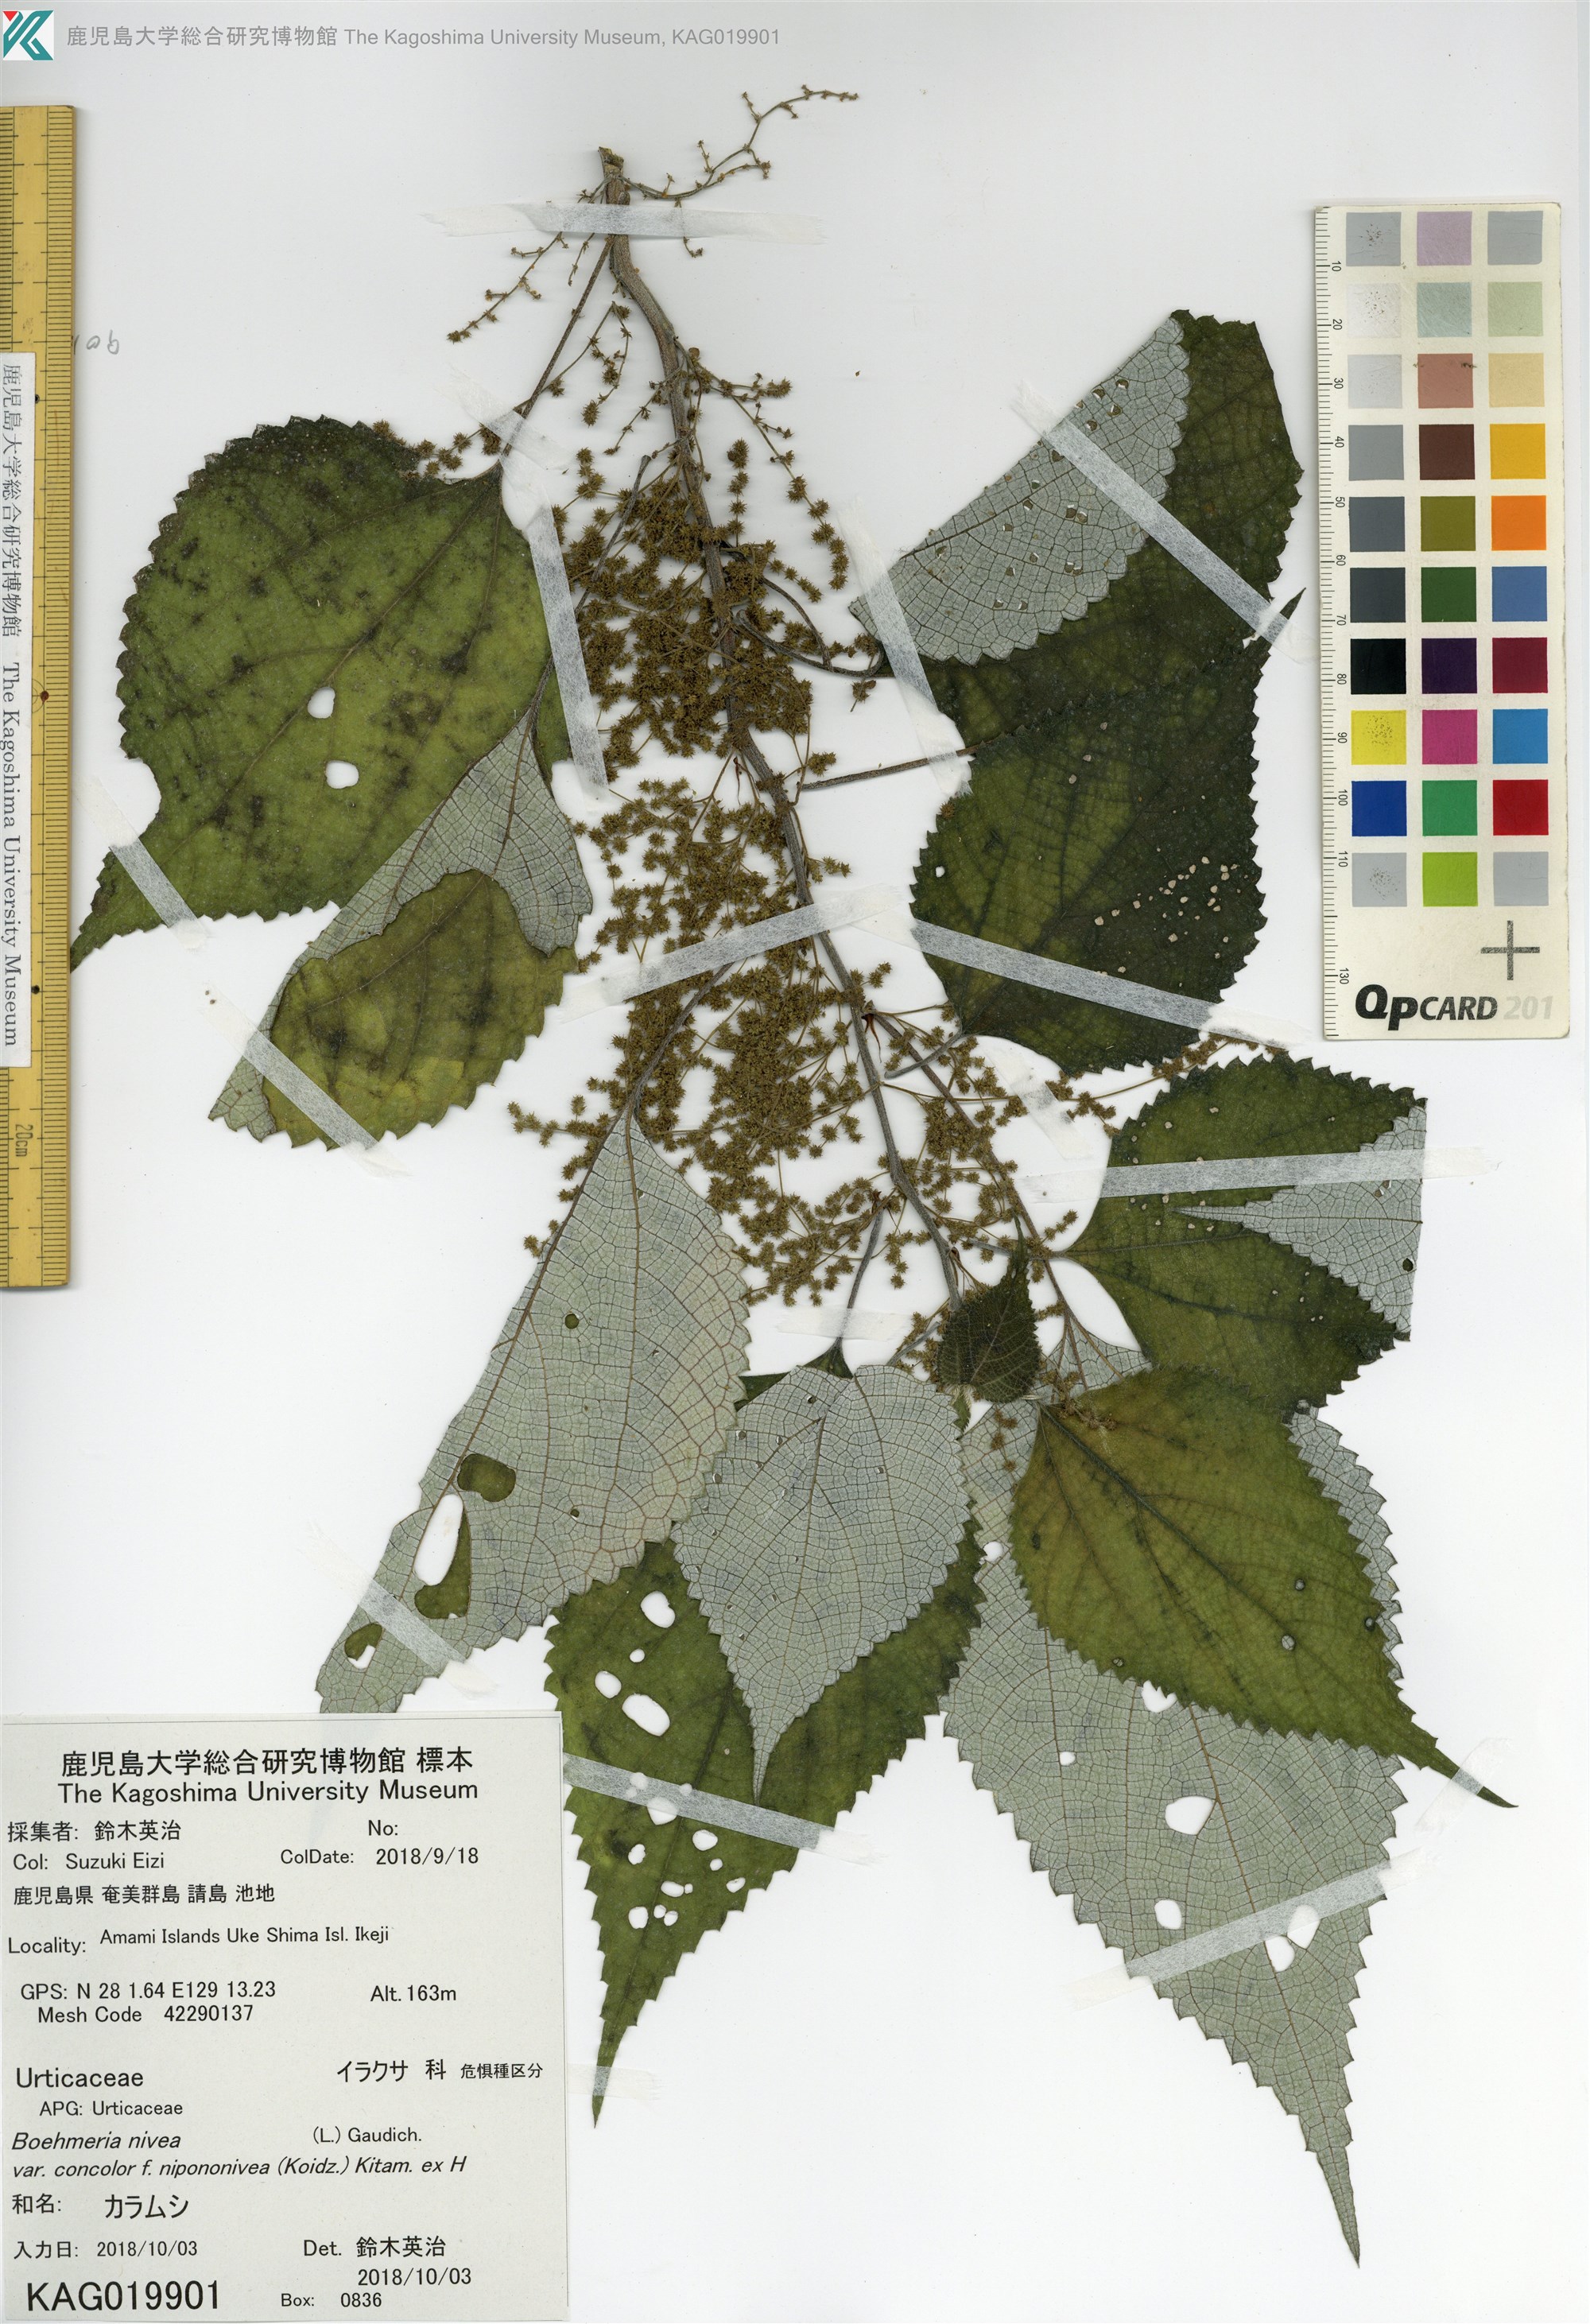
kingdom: Plantae
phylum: Tracheophyta
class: Magnoliopsida
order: Rosales
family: Urticaceae
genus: Boehmeria
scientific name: Boehmeria nivea
